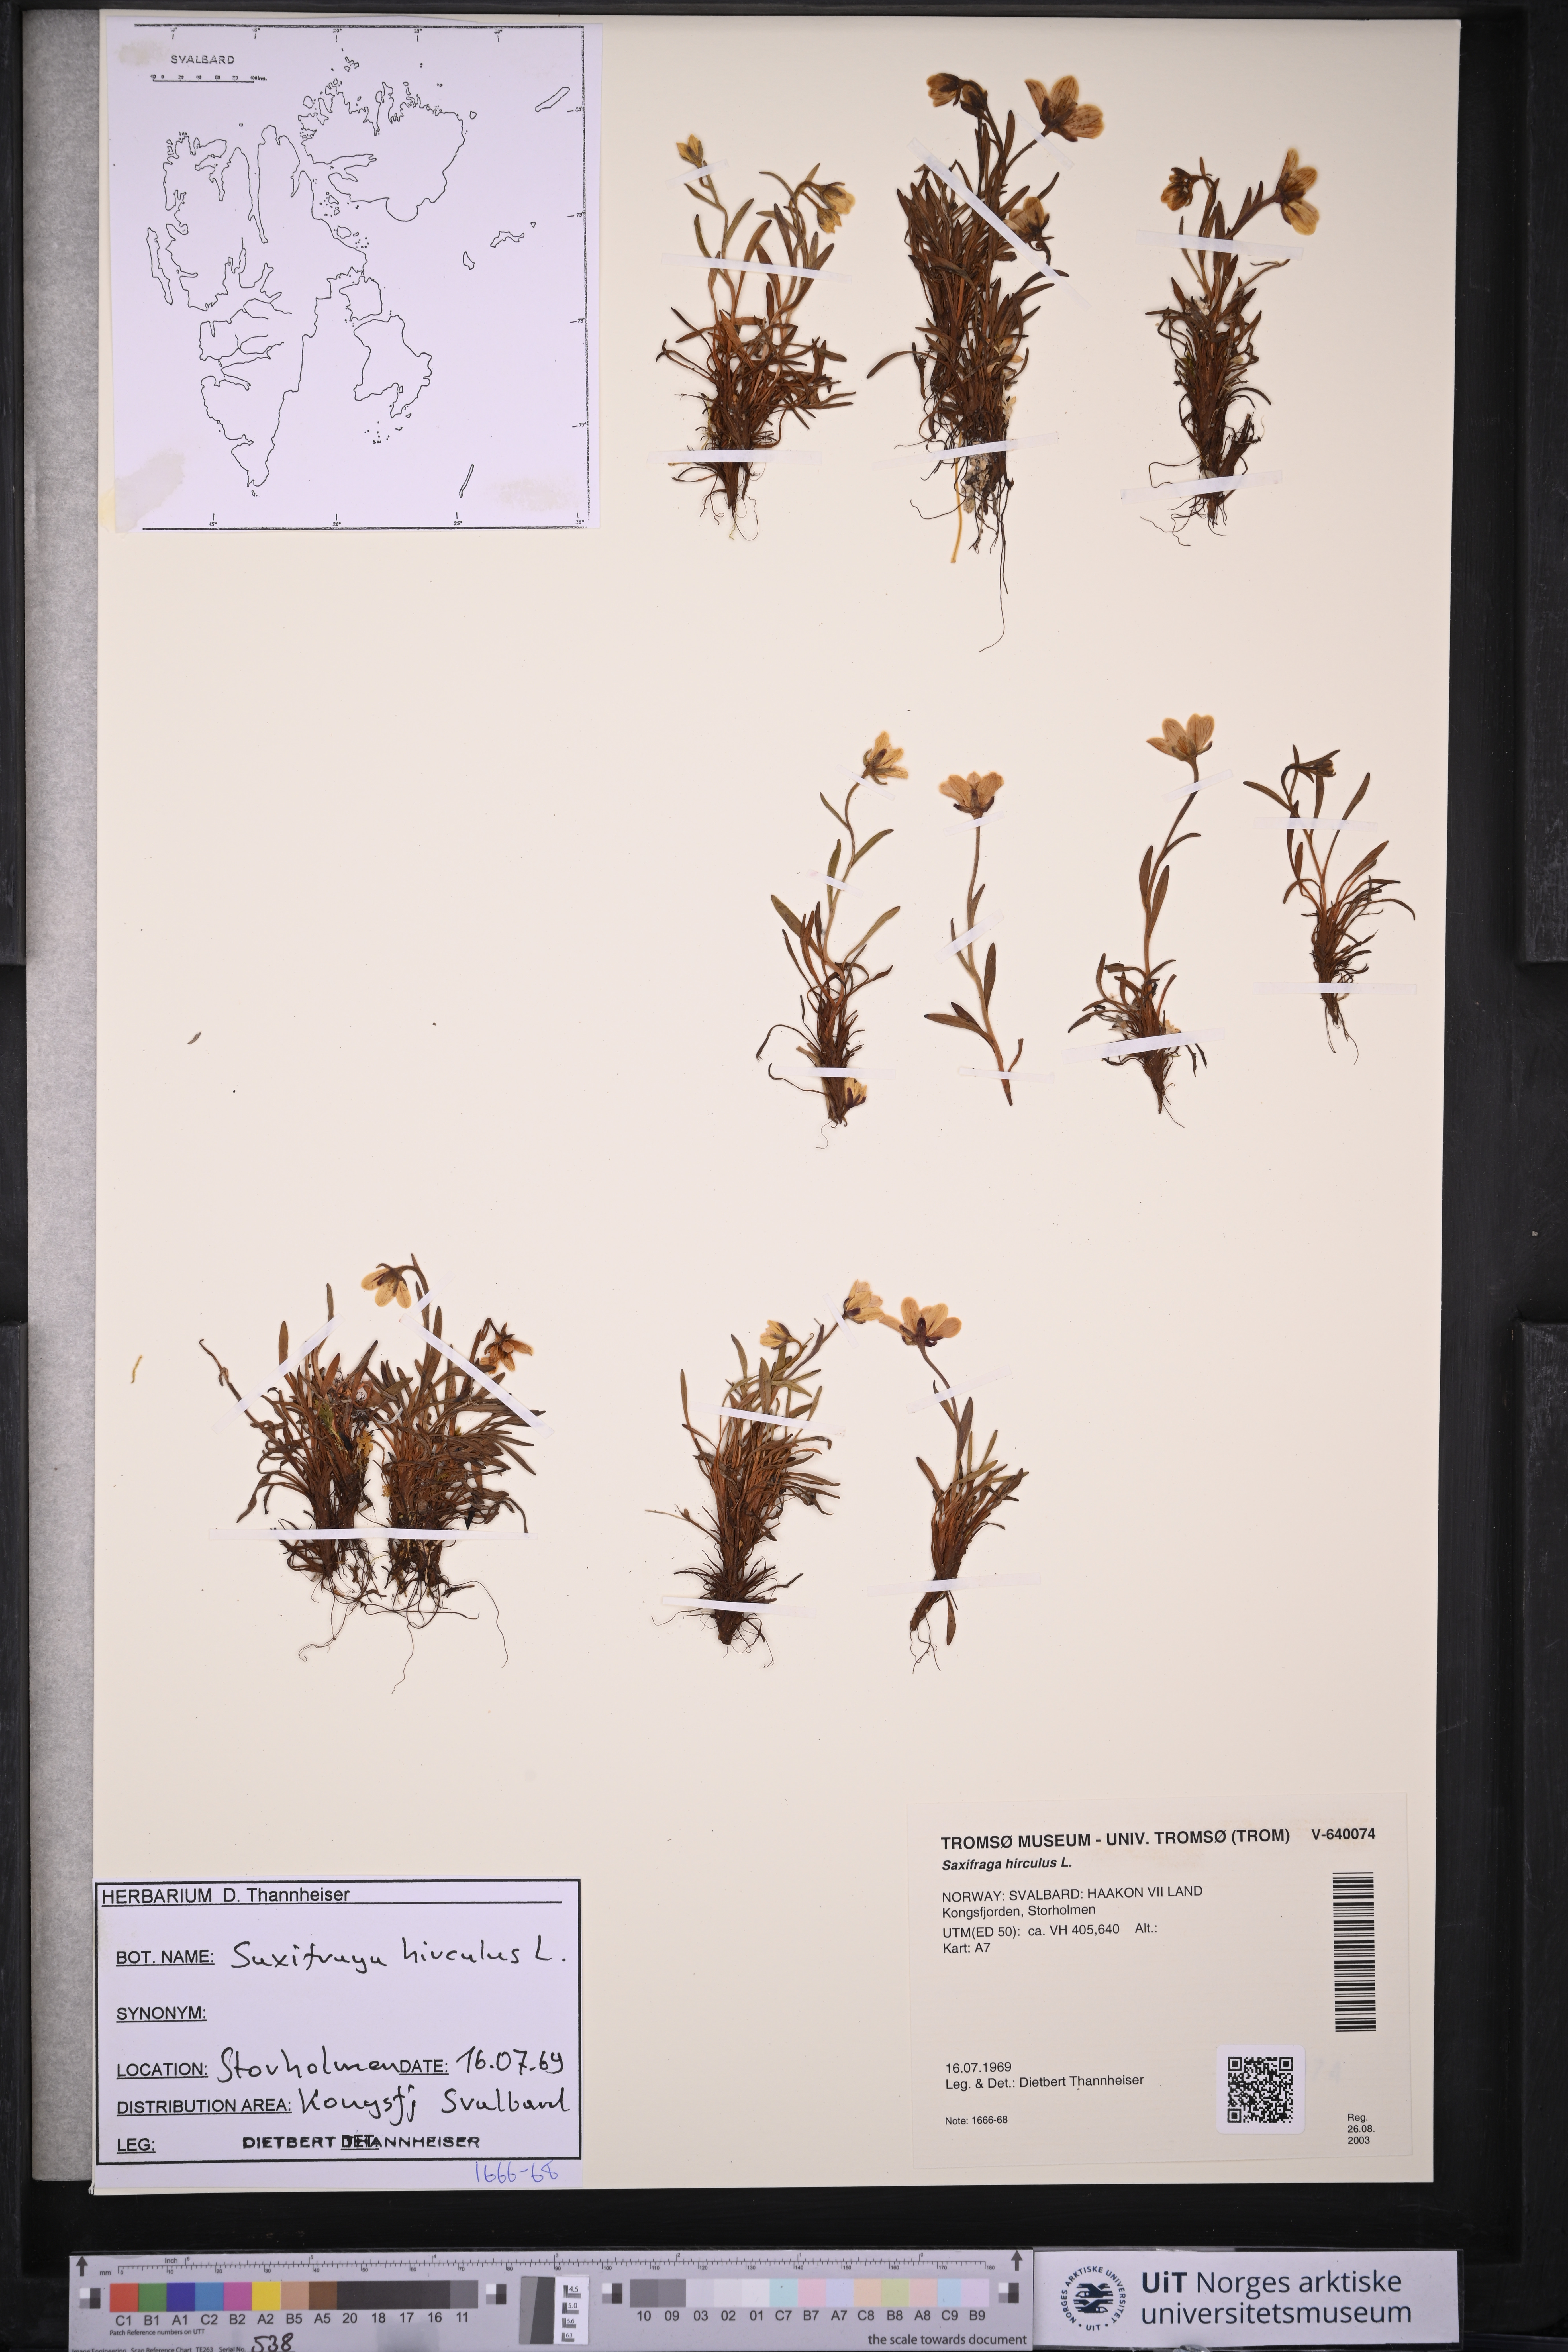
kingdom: Plantae
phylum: Tracheophyta
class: Magnoliopsida
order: Saxifragales
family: Saxifragaceae
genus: Saxifraga
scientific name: Saxifraga hirculus
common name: Yellow marsh saxifrage
